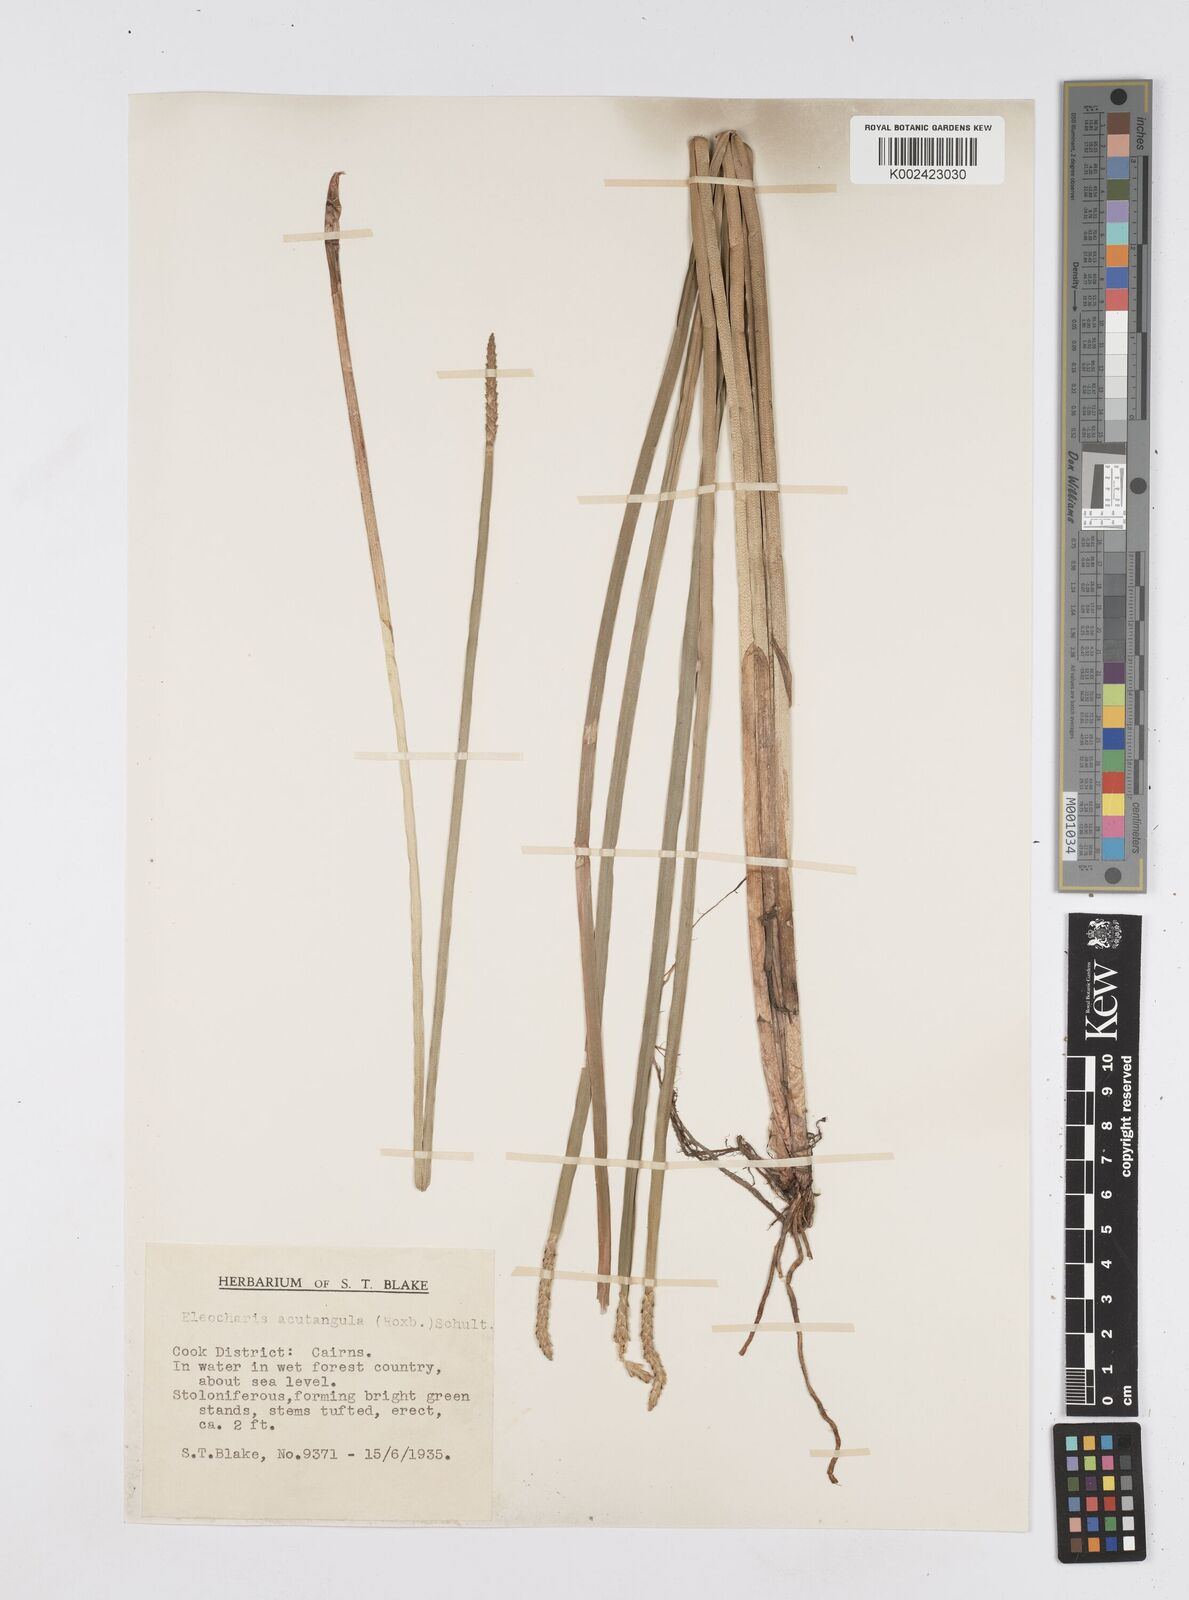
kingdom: Plantae
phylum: Tracheophyta
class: Liliopsida
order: Poales
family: Cyperaceae
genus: Eleocharis
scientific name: Eleocharis acutangula
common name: Acute spikerush
